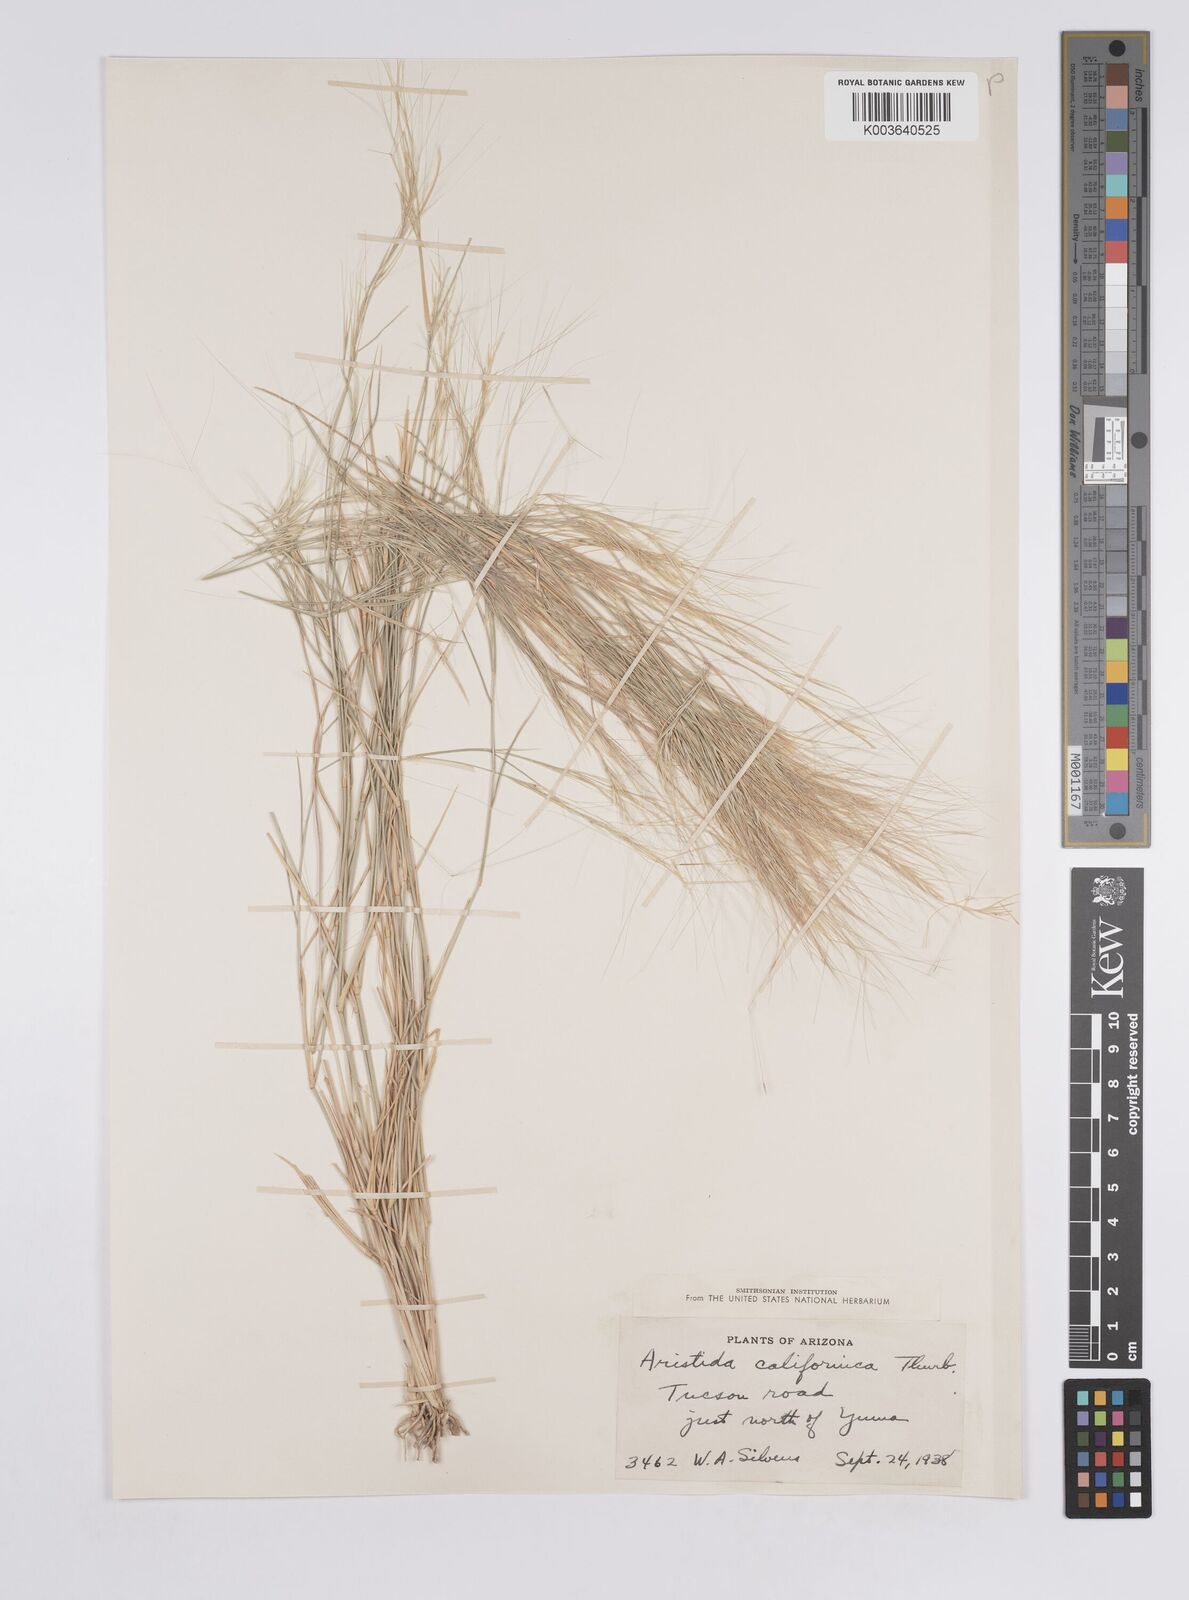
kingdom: Plantae
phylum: Tracheophyta
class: Liliopsida
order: Poales
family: Poaceae
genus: Aristida
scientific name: Aristida californica
